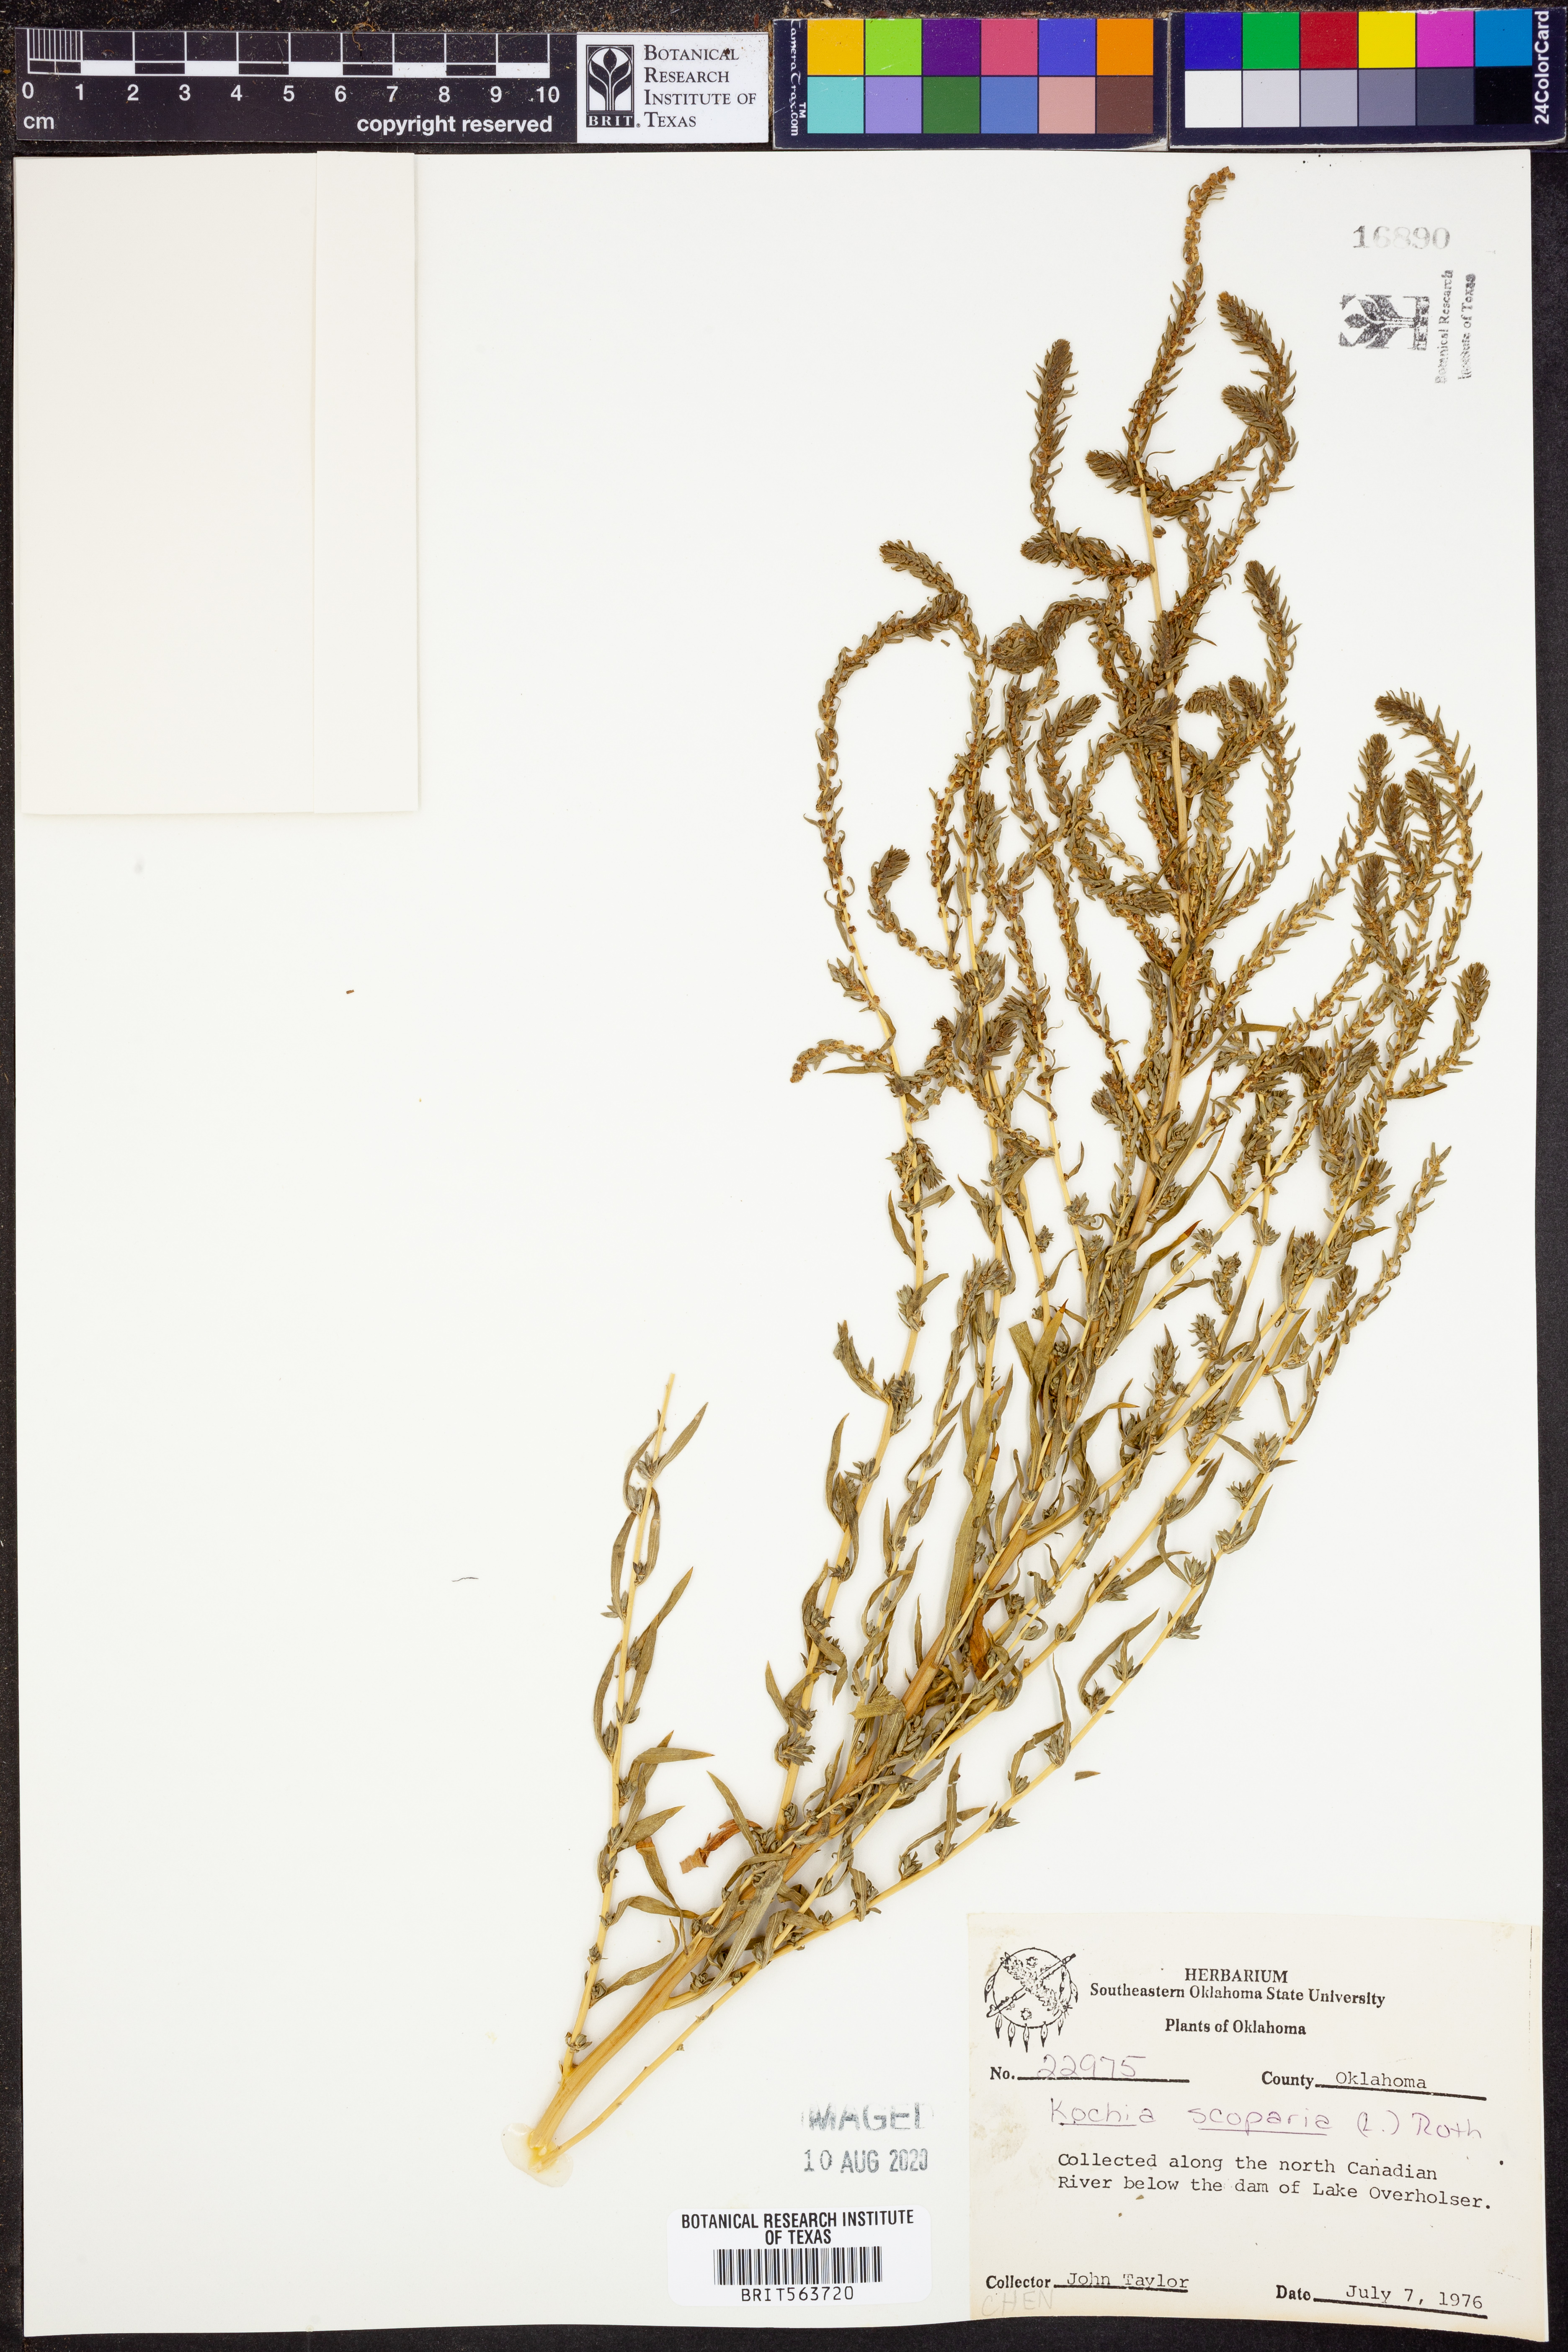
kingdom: Plantae
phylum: Tracheophyta
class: Magnoliopsida
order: Caryophyllales
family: Amaranthaceae
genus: Bassia
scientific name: Bassia scoparia
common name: Belvedere
